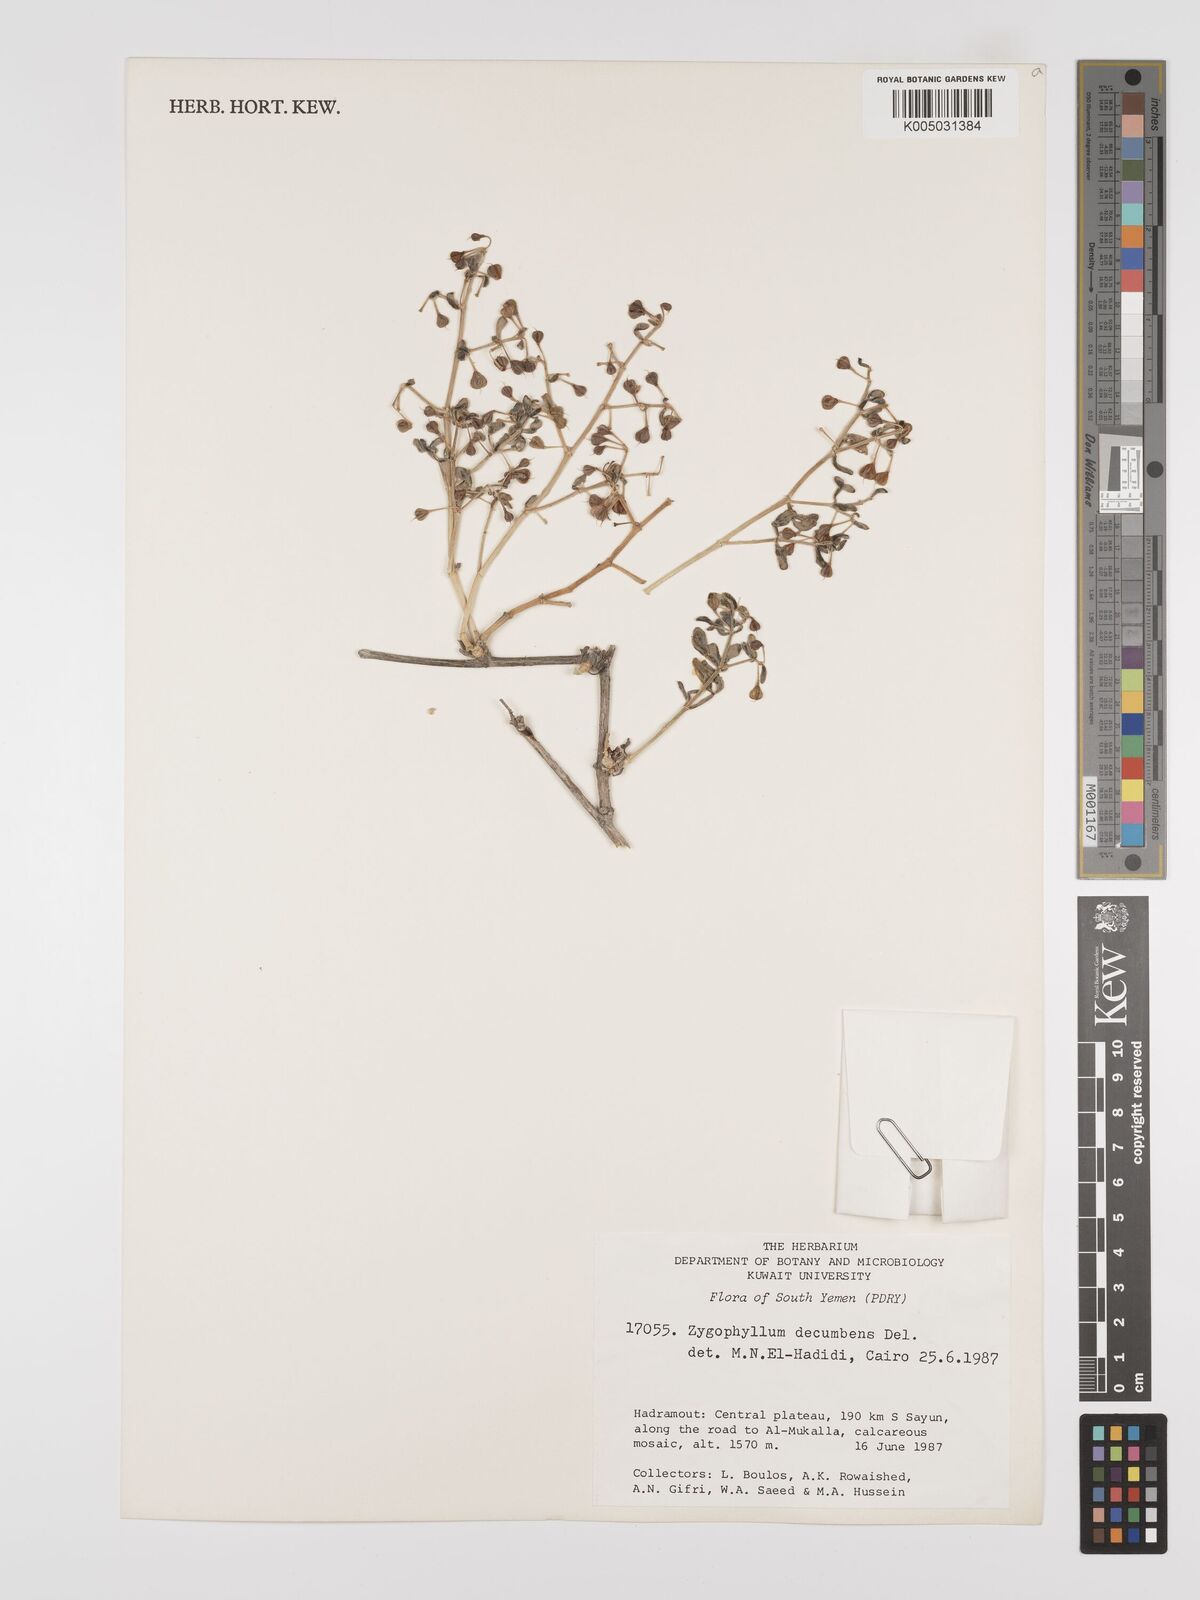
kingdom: Plantae
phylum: Tracheophyta
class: Magnoliopsida
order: Zygophyllales
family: Zygophyllaceae
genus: Tetraena
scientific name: Tetraena decumbens
